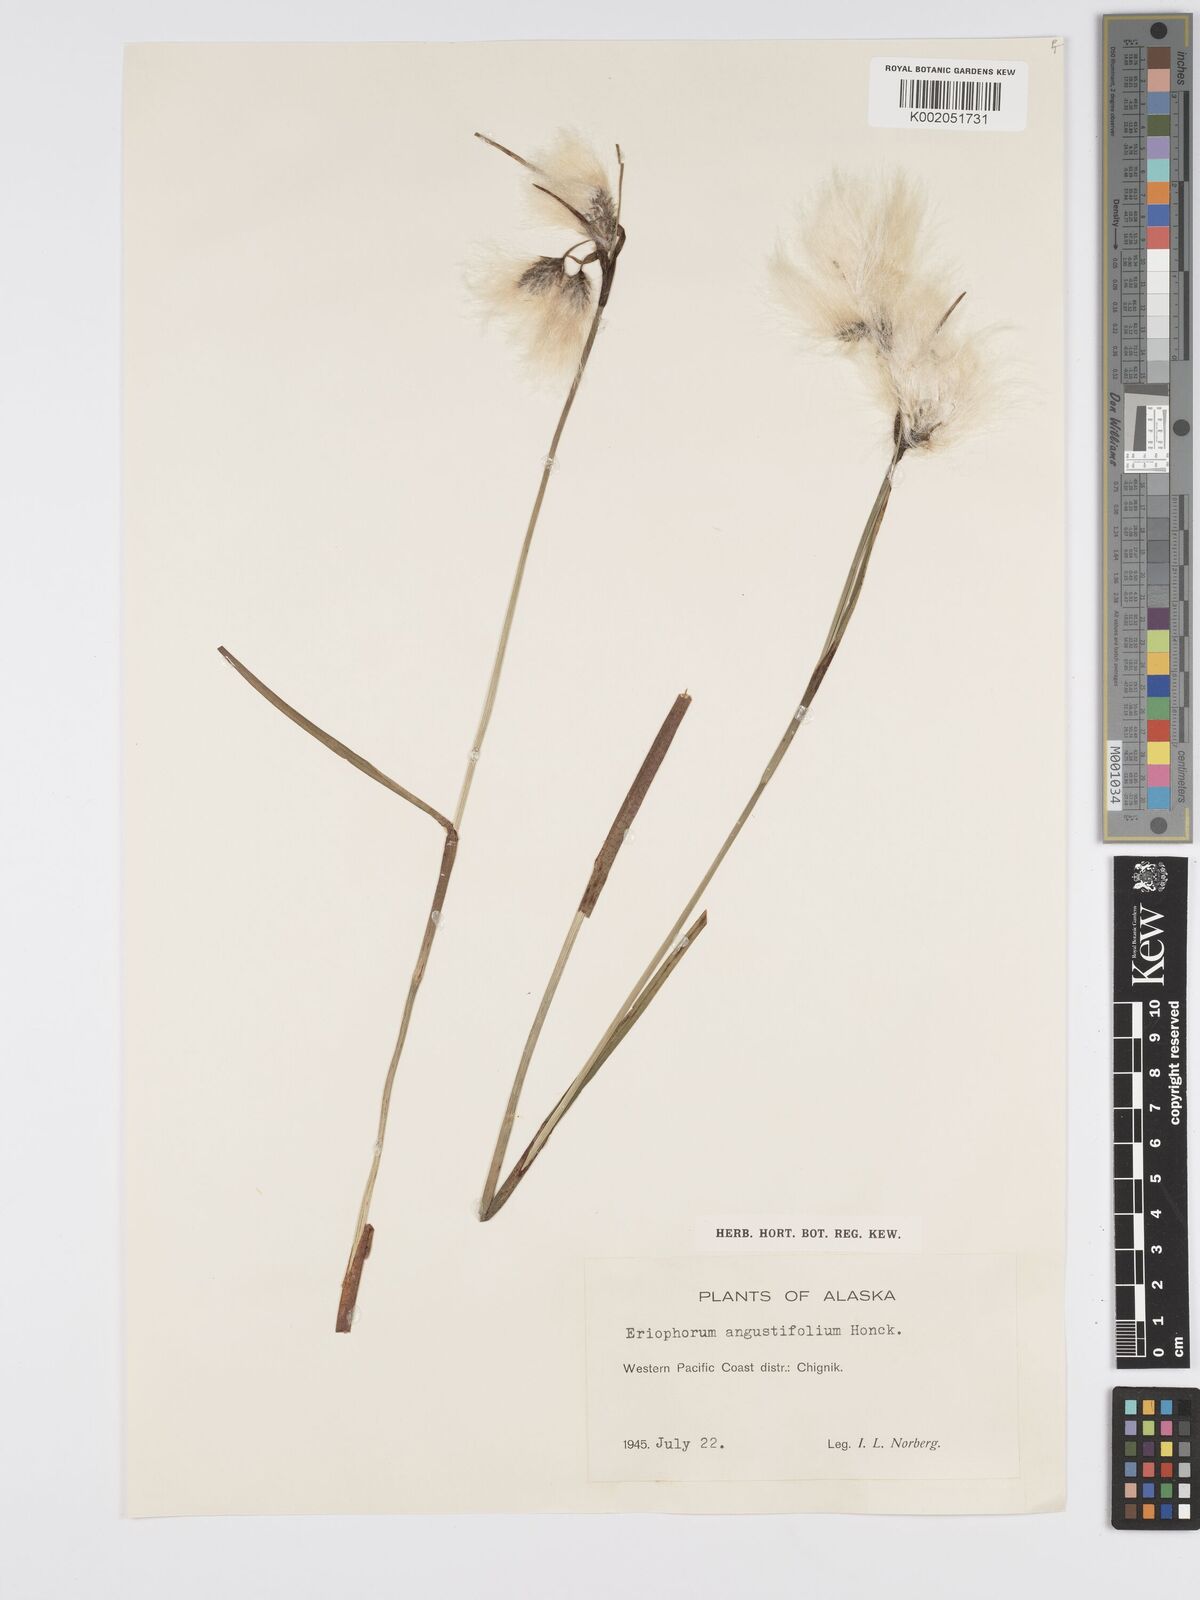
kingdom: Plantae
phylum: Tracheophyta
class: Liliopsida
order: Poales
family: Cyperaceae
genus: Eriophorum
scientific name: Eriophorum angustifolium
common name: Common cottongrass
